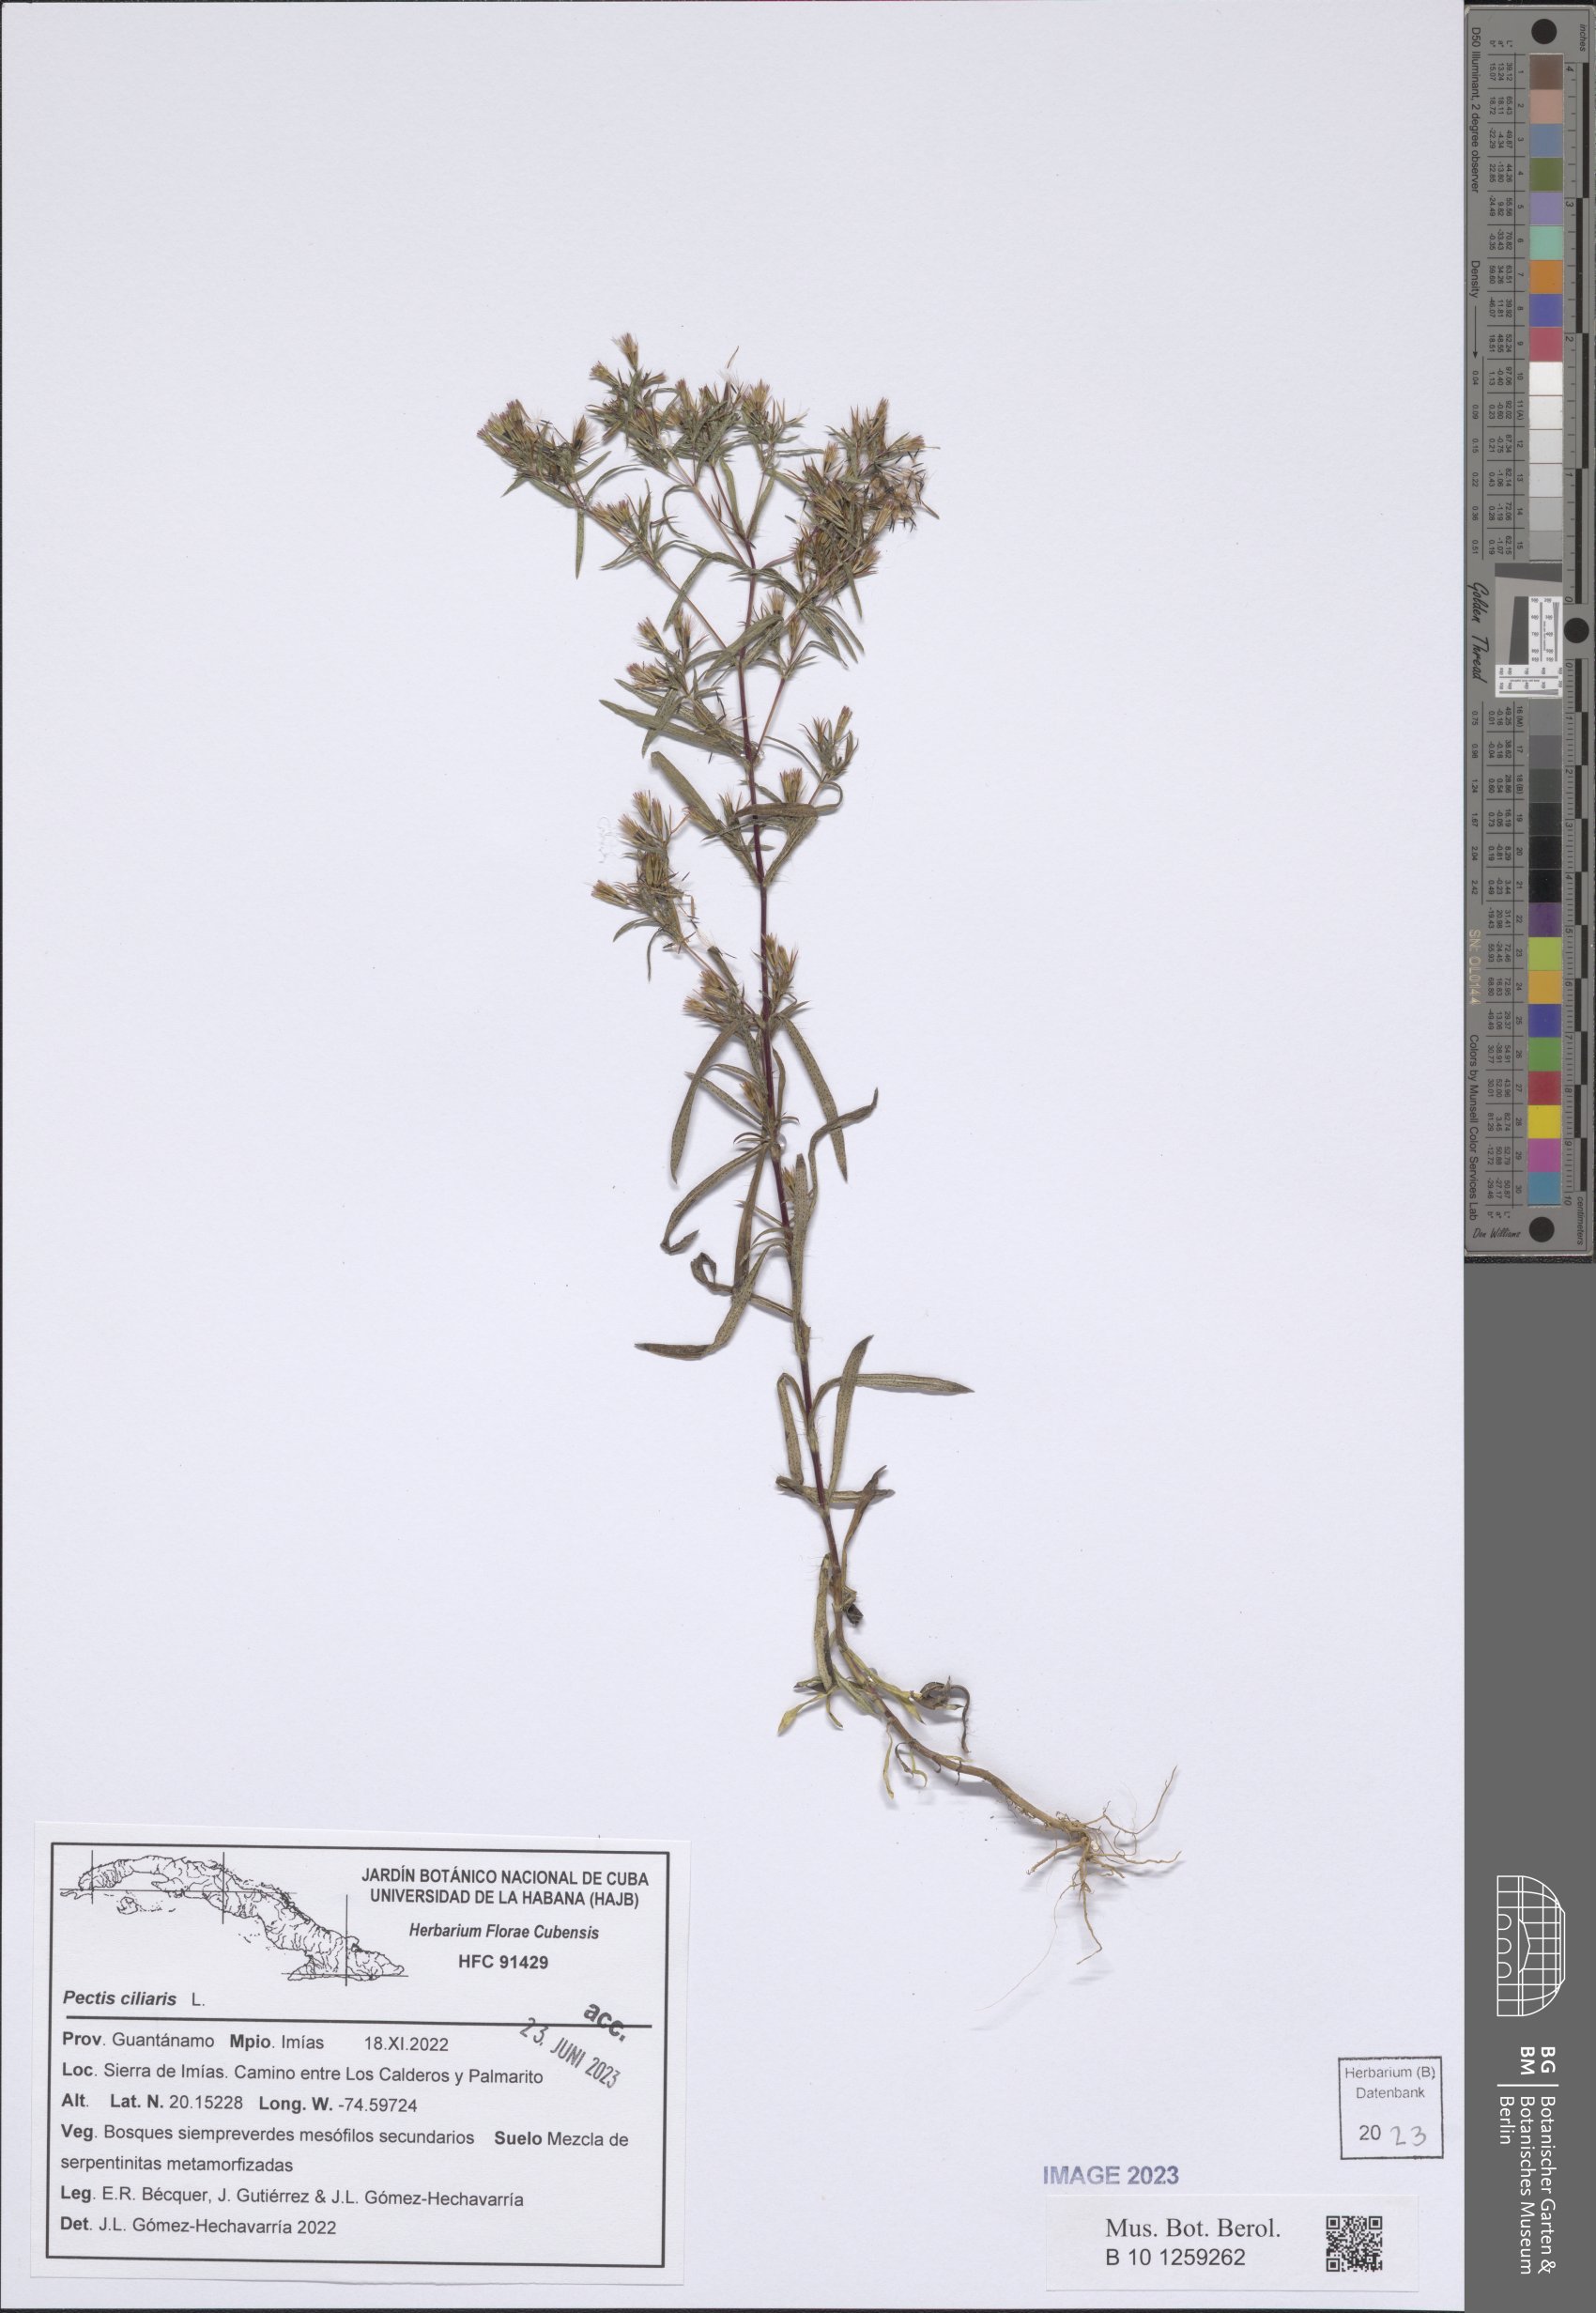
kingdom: Plantae
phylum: Tracheophyta
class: Magnoliopsida
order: Asterales
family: Asteraceae
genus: Pectis
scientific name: Pectis ciliaris
